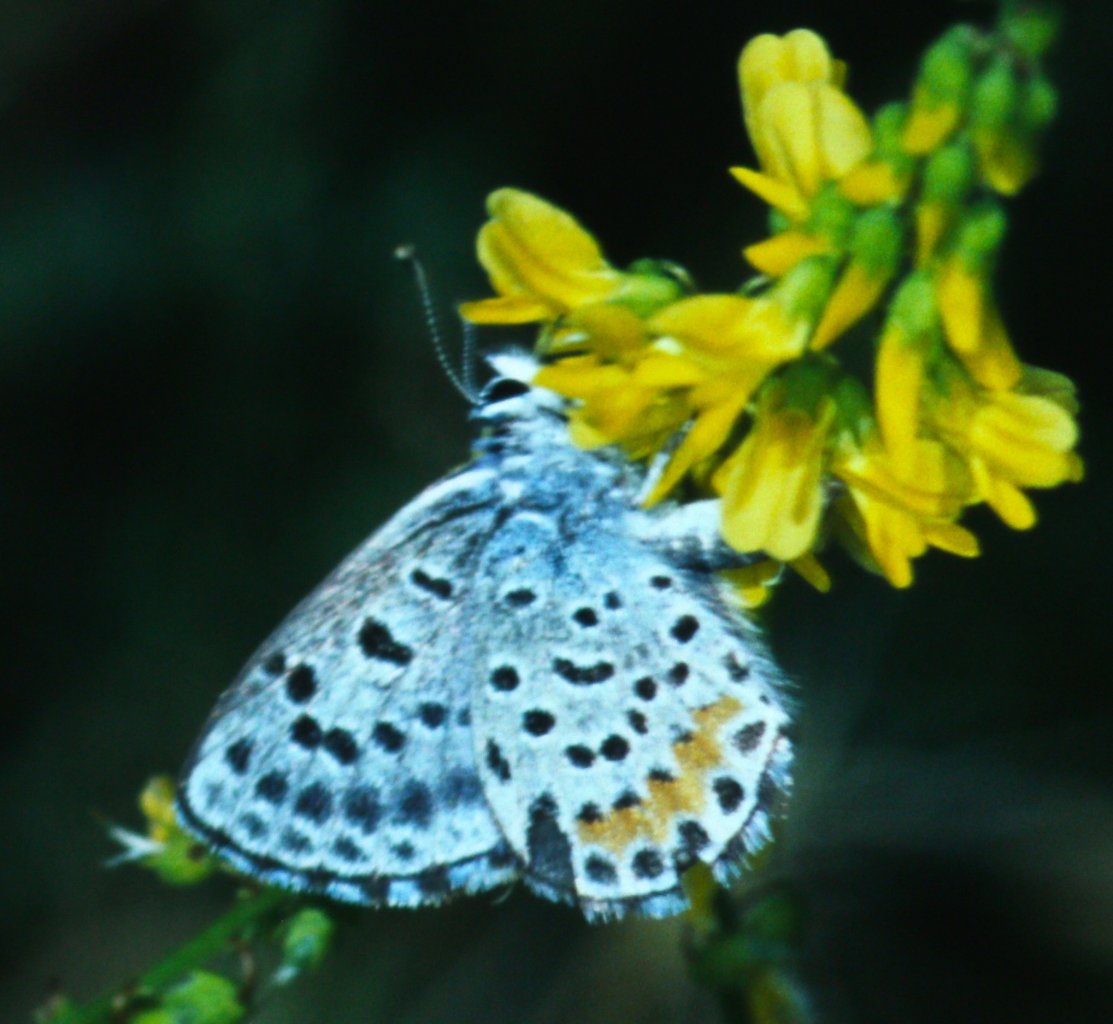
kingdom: Animalia
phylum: Arthropoda
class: Insecta
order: Lepidoptera
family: Lycaenidae
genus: Euphilotes
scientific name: Euphilotes rita
